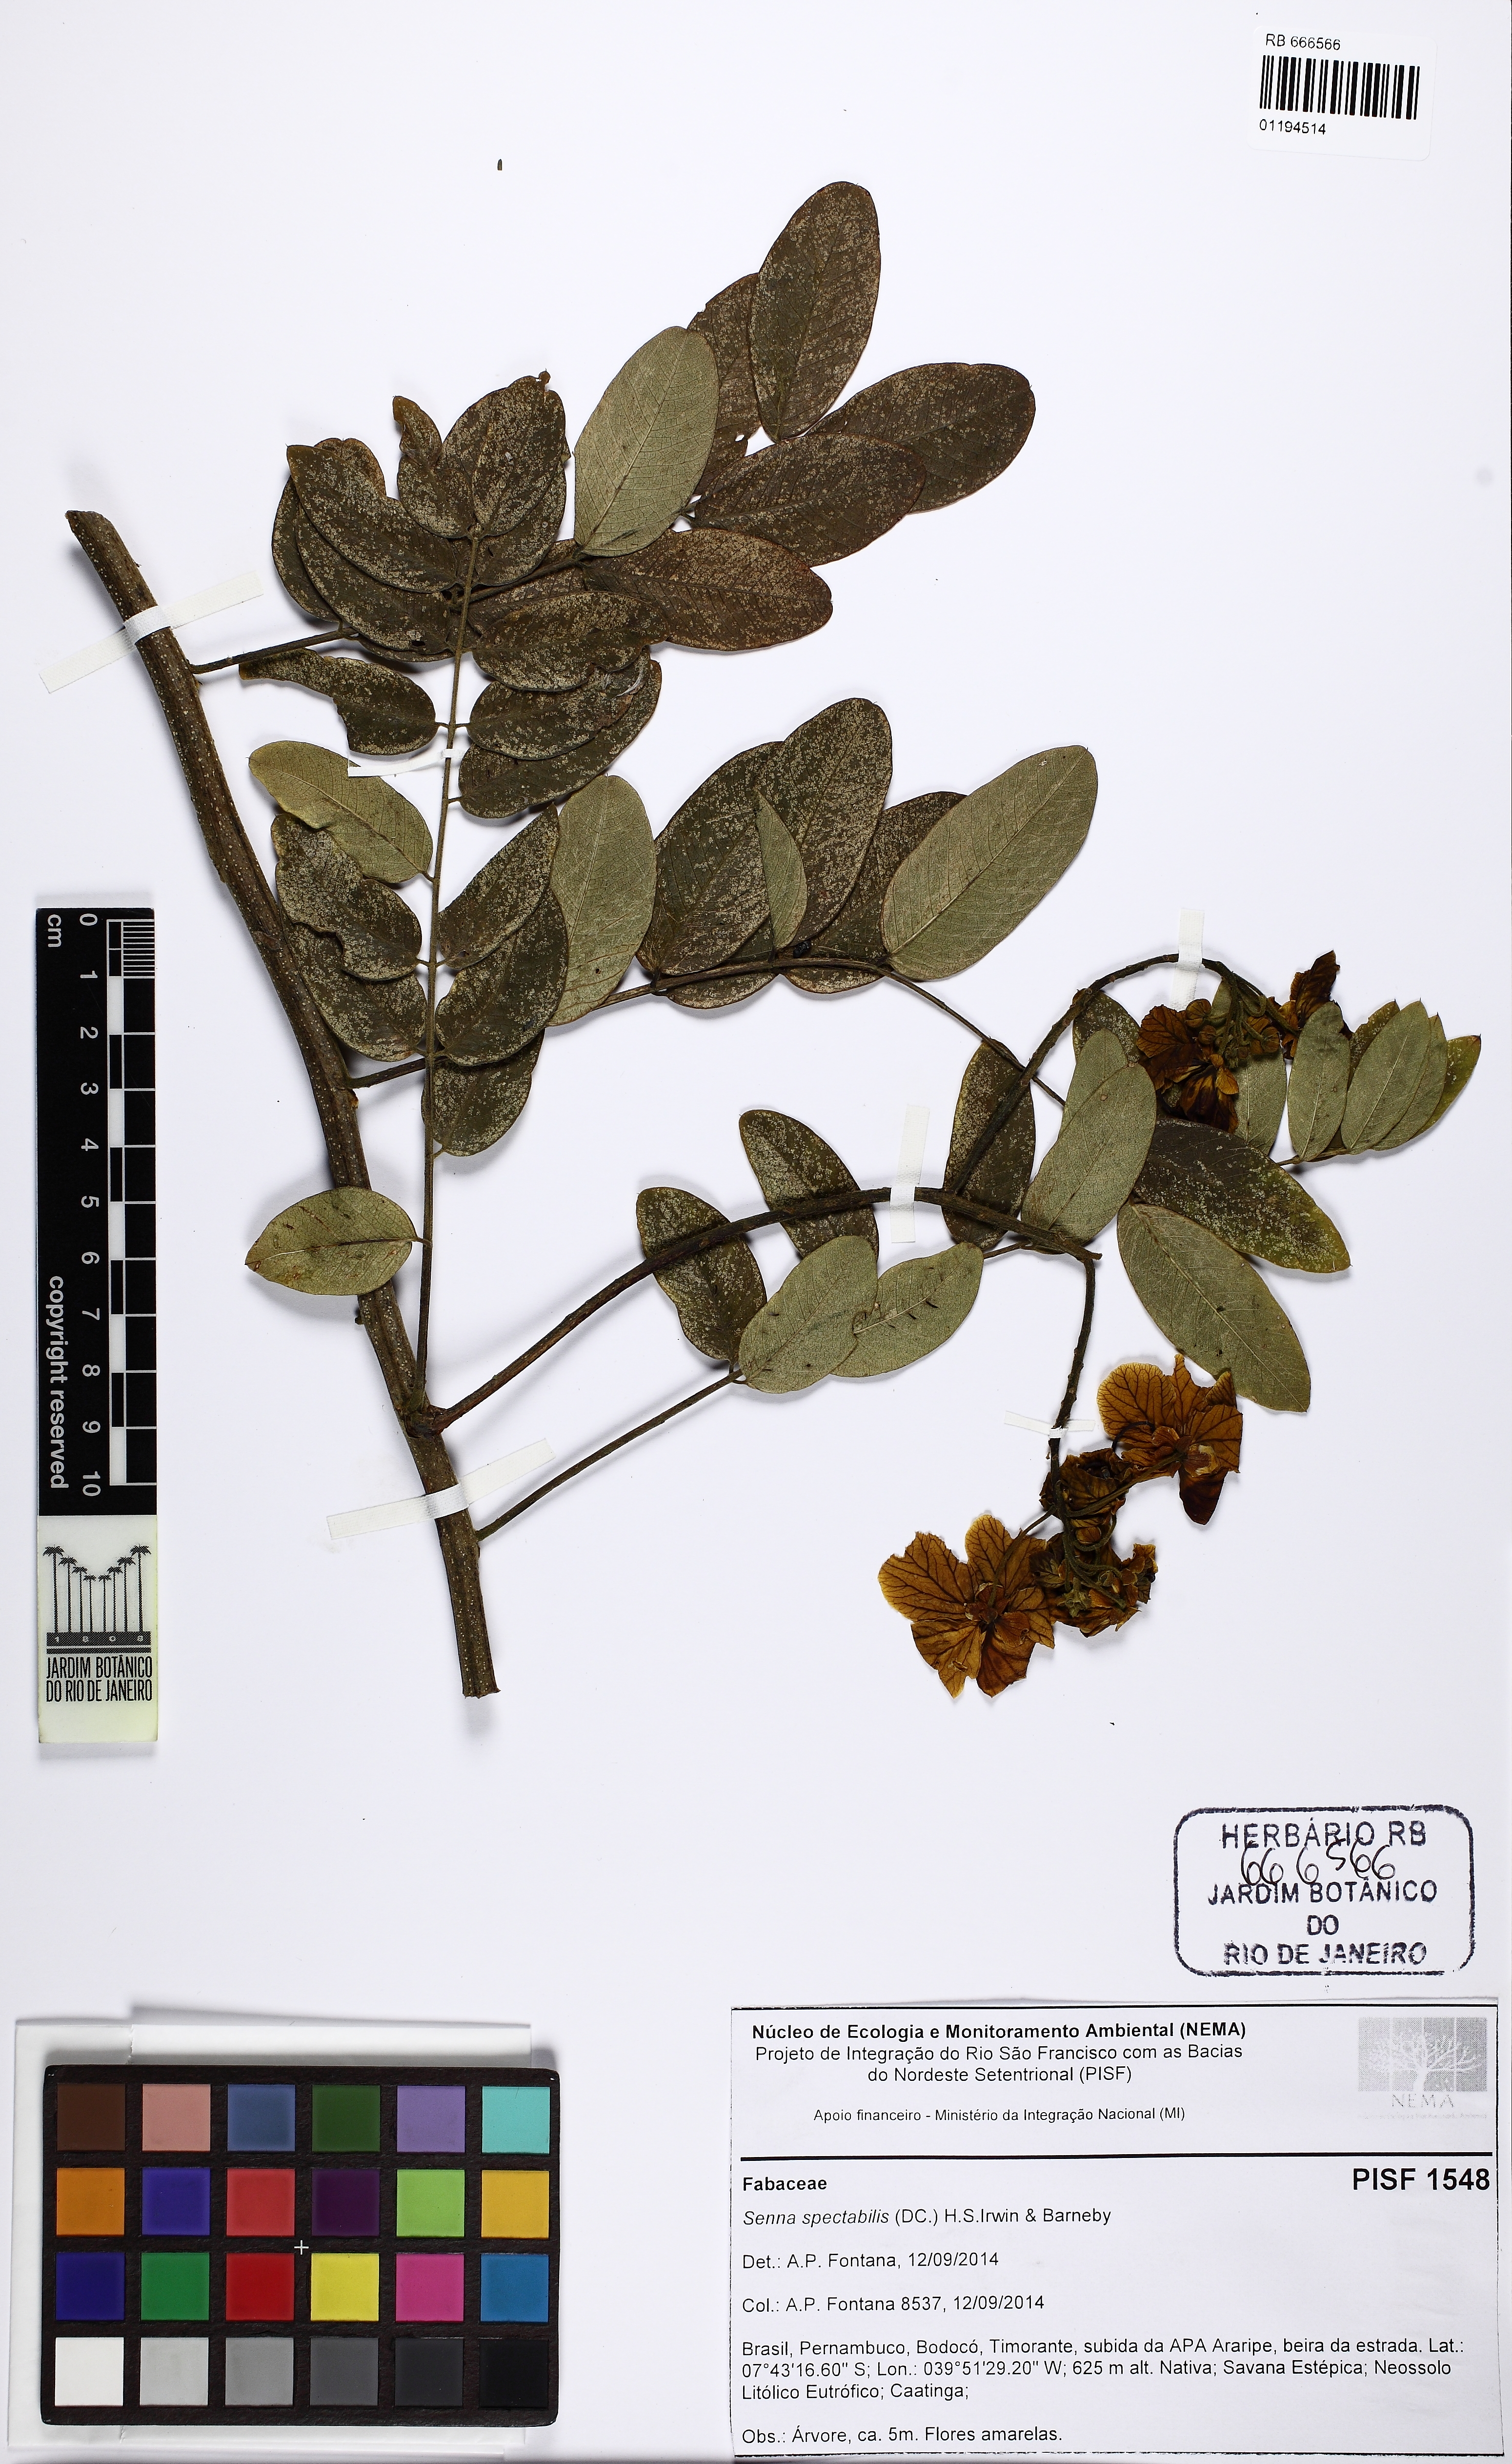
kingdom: Plantae
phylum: Tracheophyta
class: Magnoliopsida
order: Fabales
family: Fabaceae
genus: Senna
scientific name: Senna spectabilis
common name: Casia amarilla
